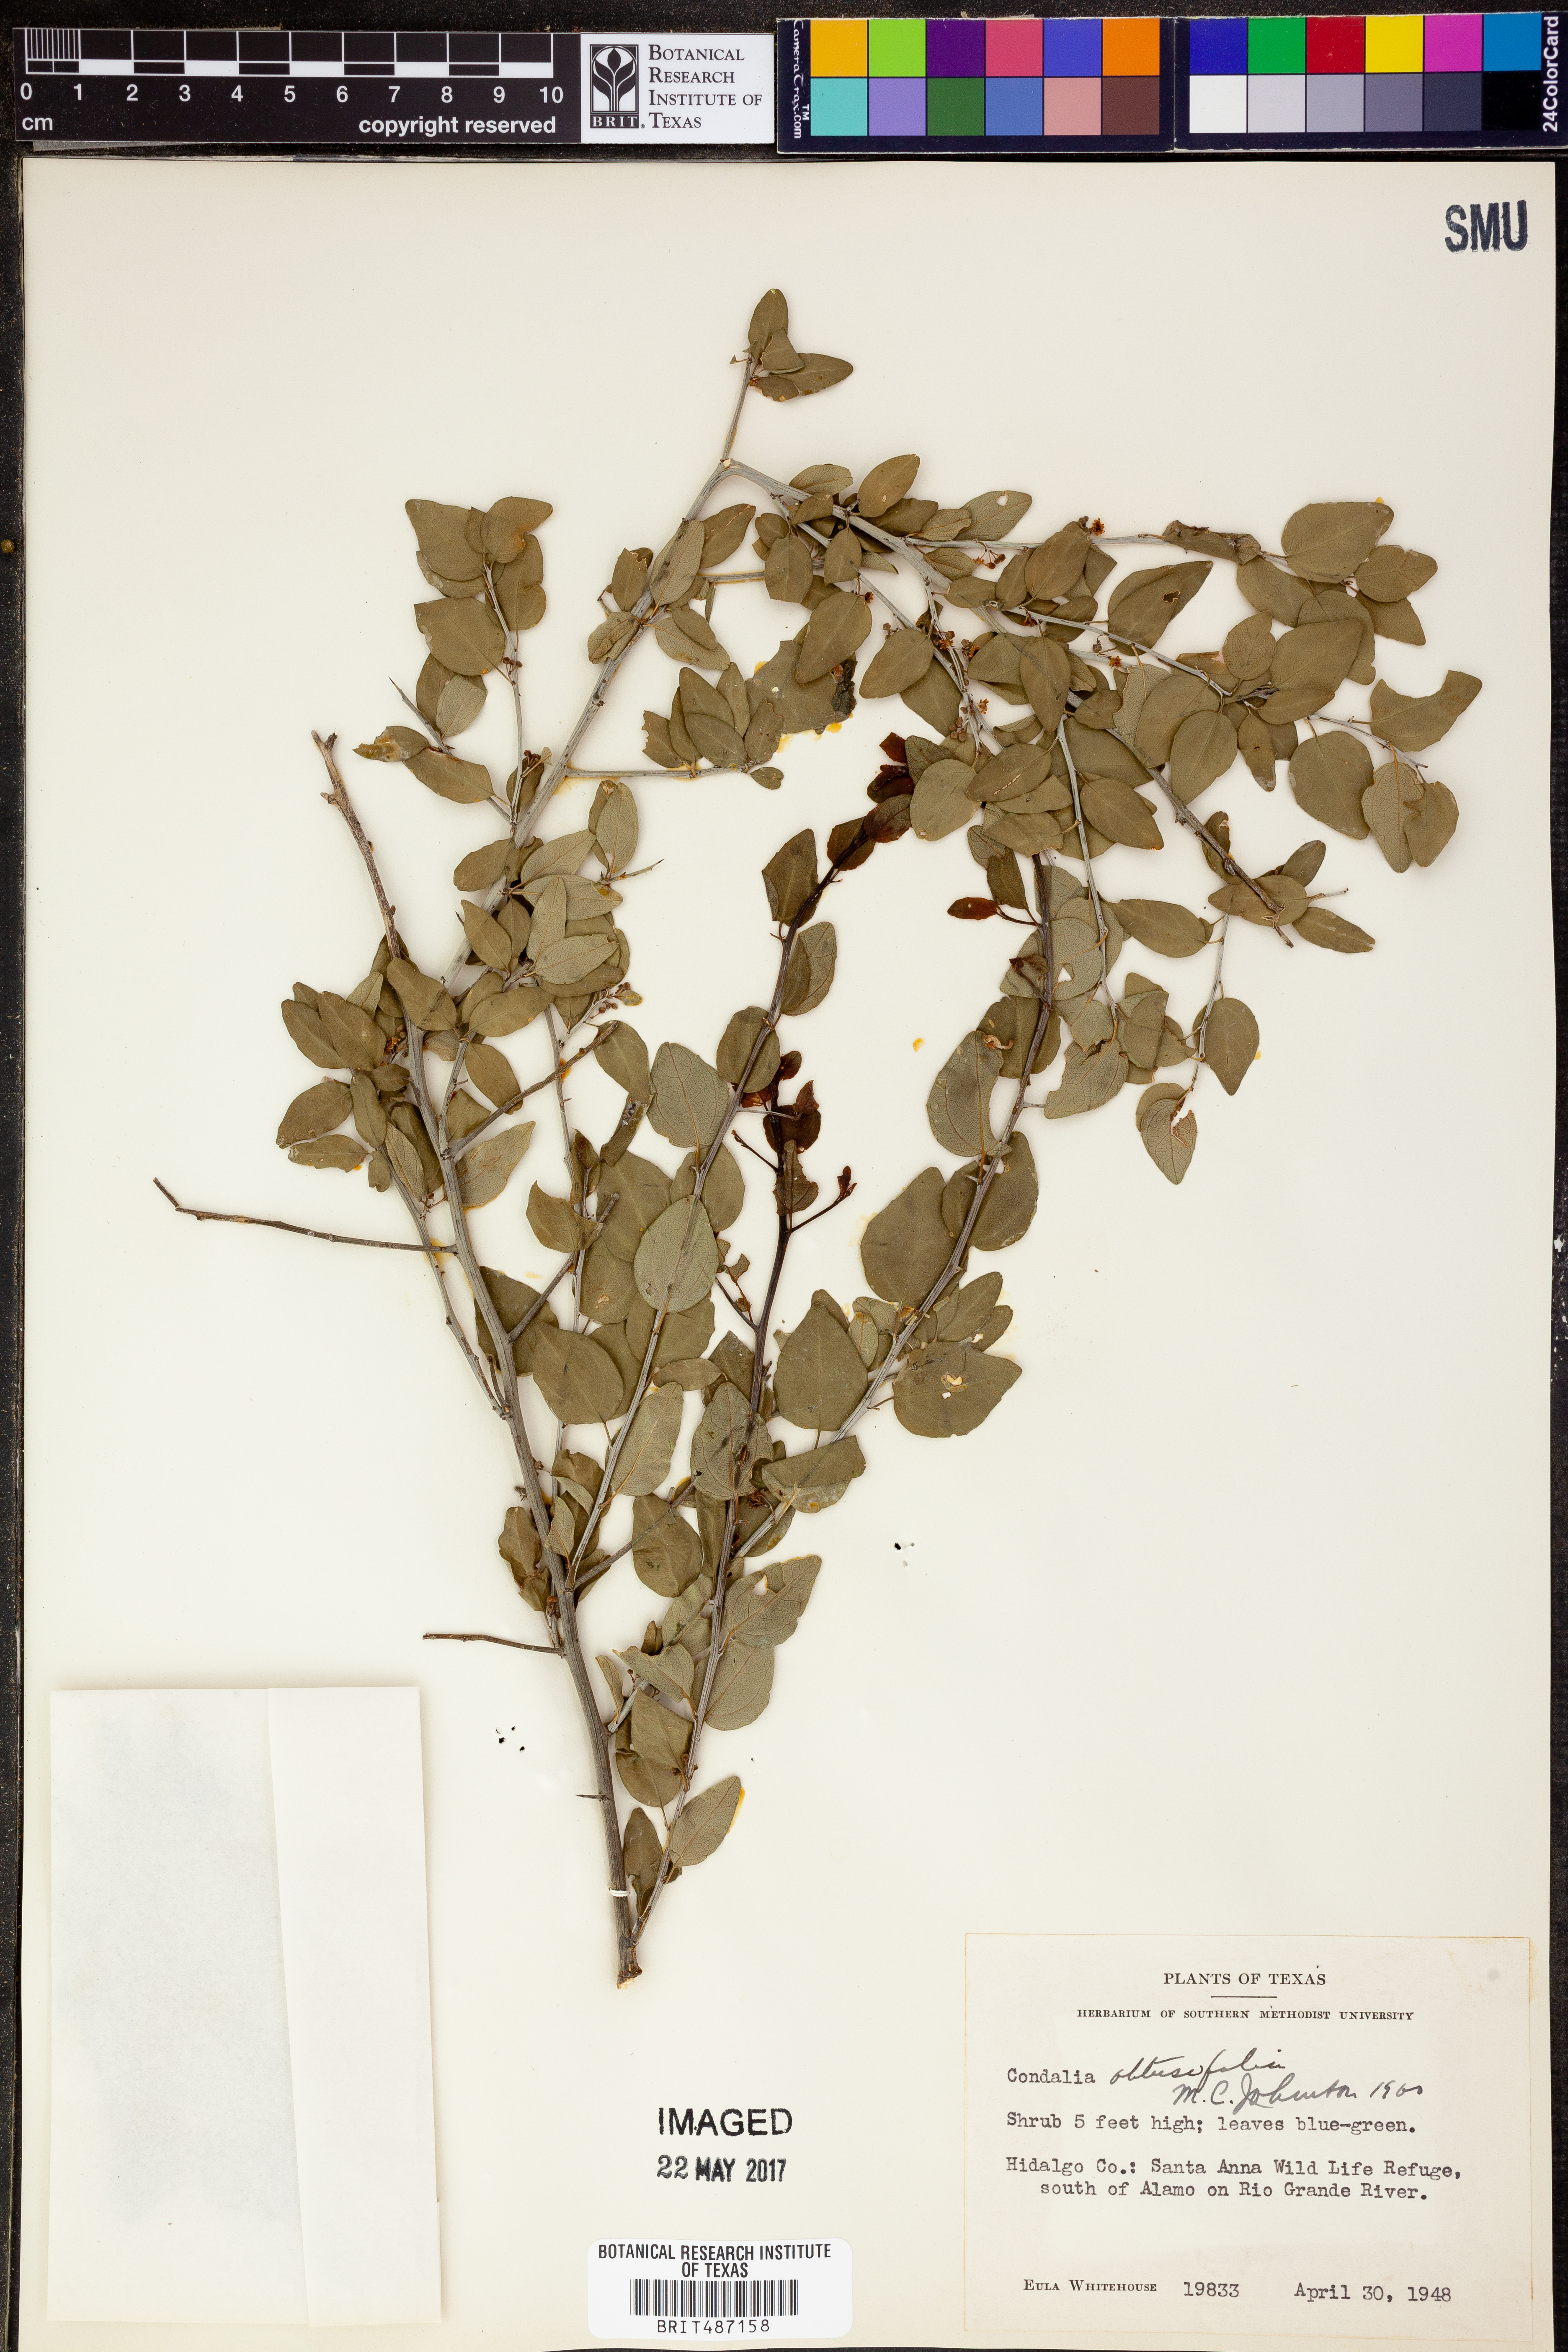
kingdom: Plantae
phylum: Tracheophyta
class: Magnoliopsida
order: Rosales
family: Rhamnaceae
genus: Sarcomphalus
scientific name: Sarcomphalus obtusifolius
